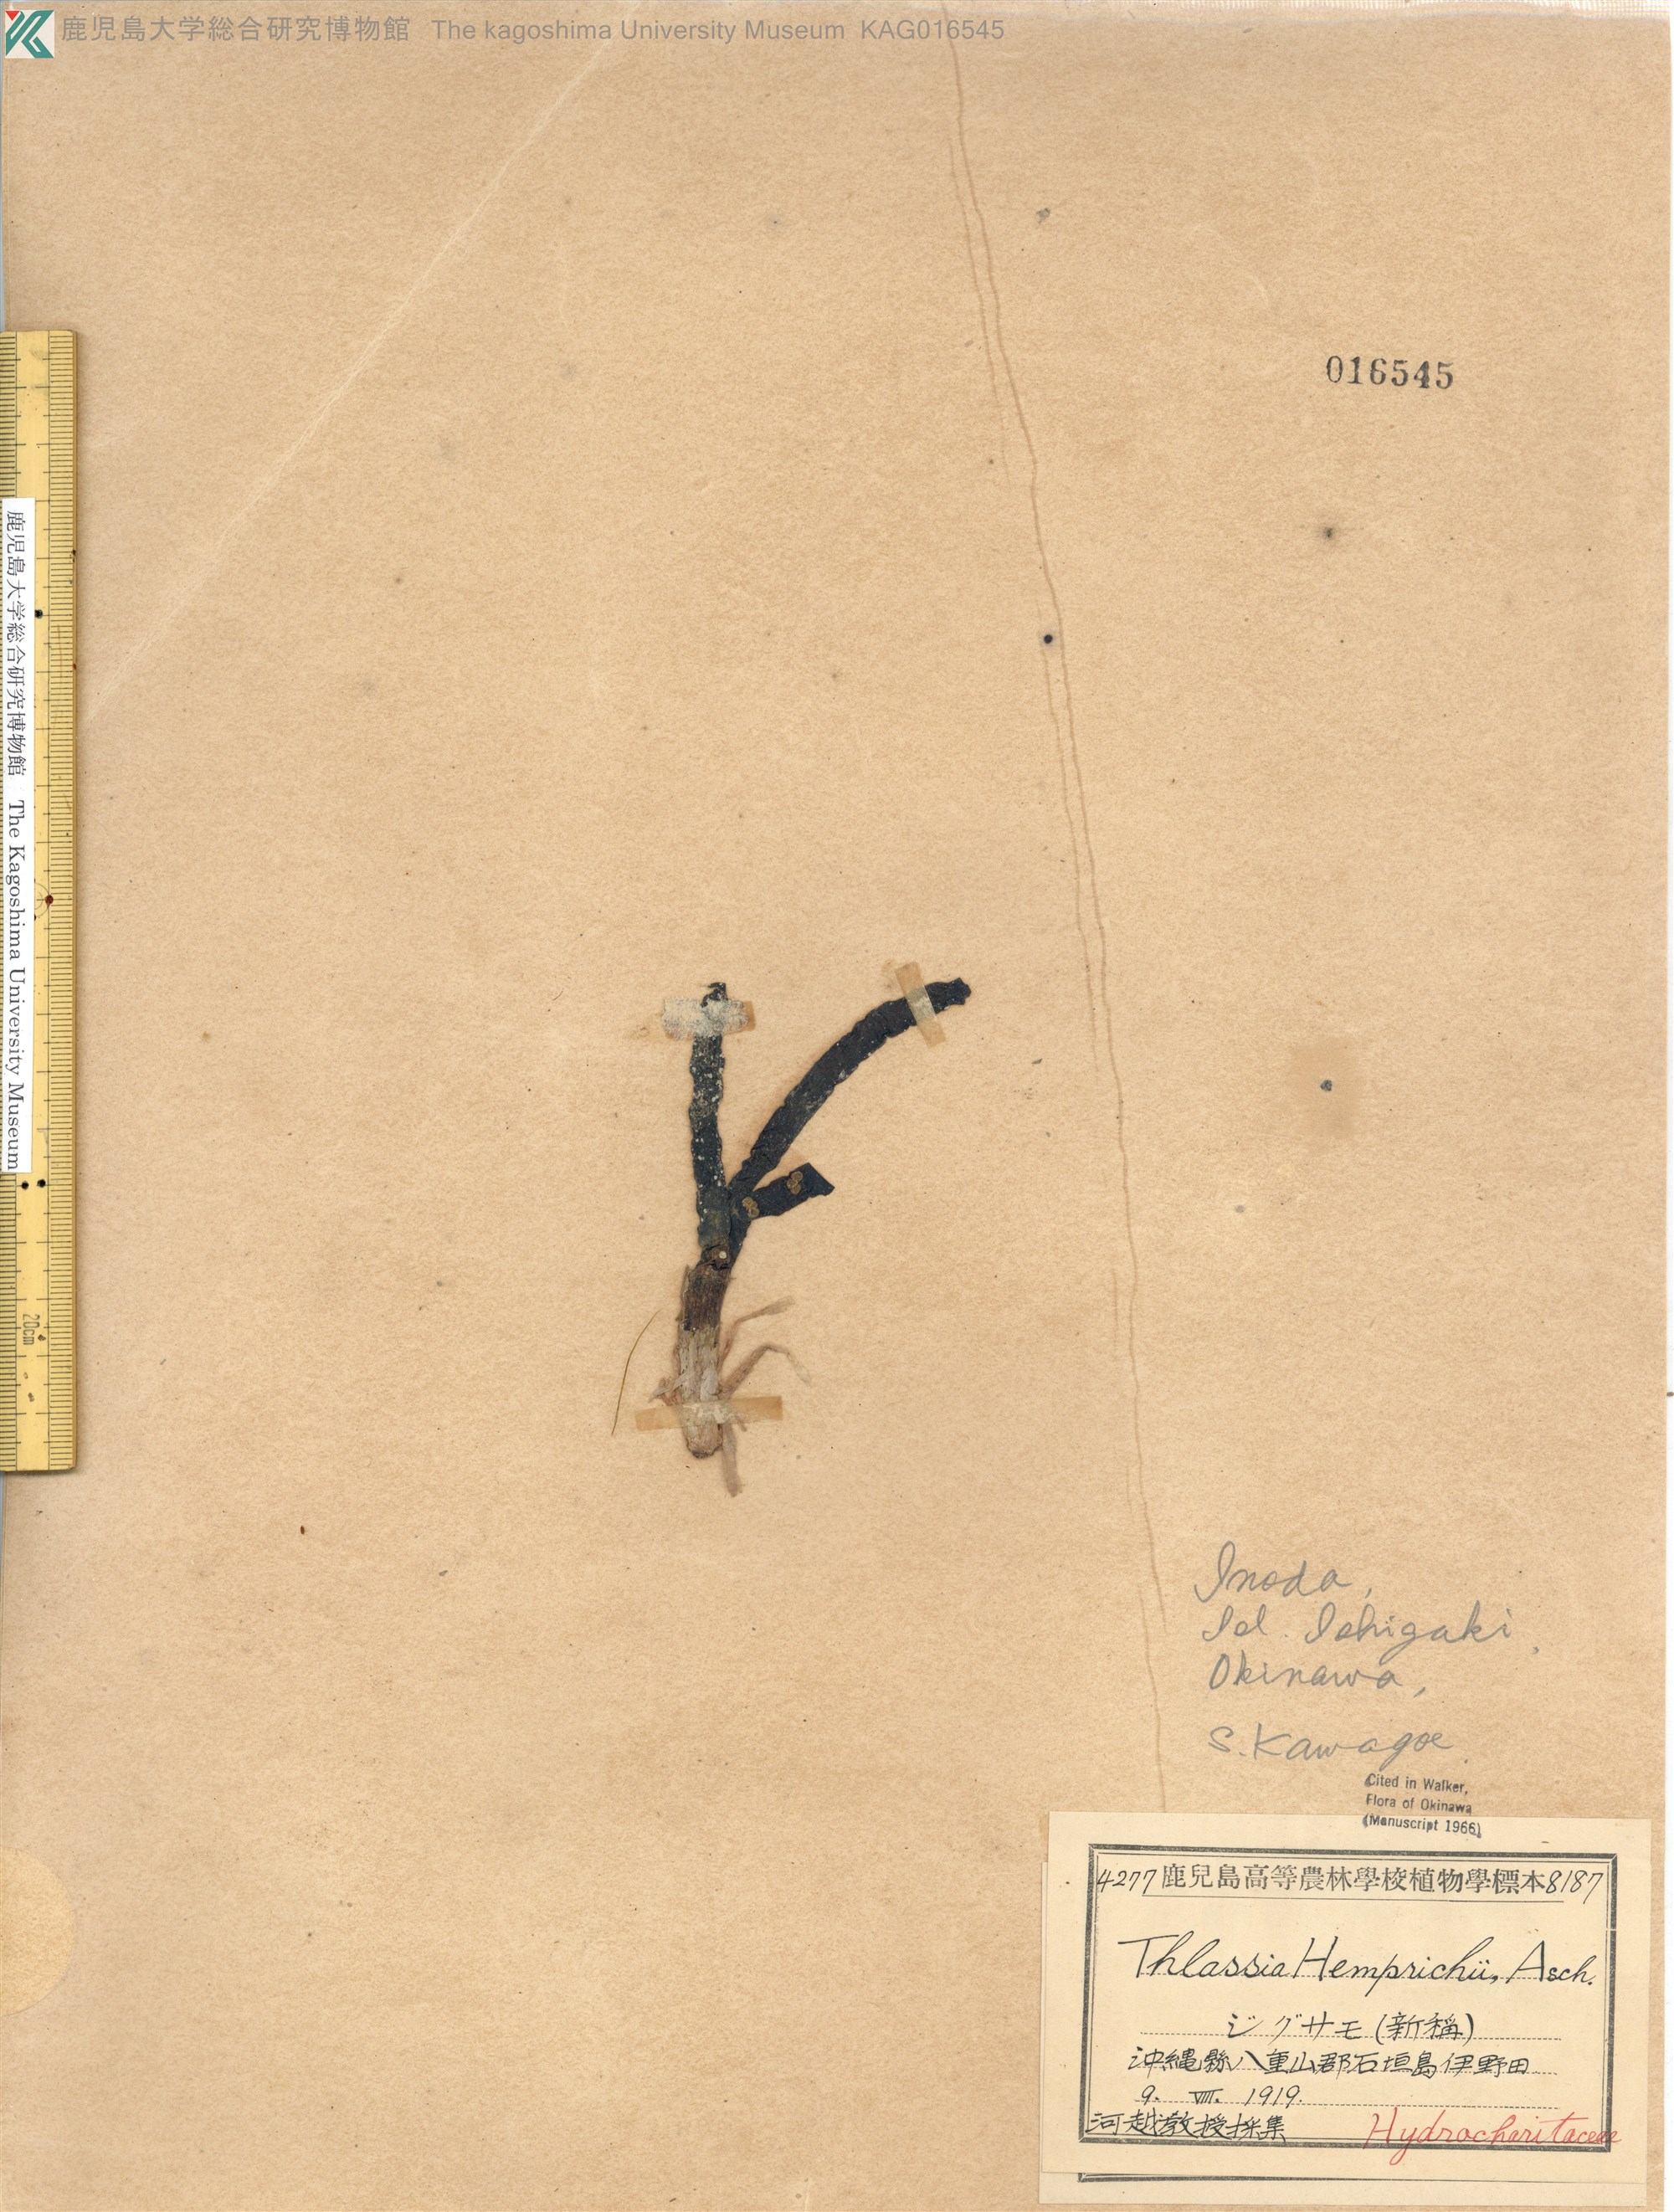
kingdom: Plantae
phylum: Tracheophyta
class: Liliopsida
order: Alismatales
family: Hydrocharitaceae
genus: Thalassia
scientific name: Thalassia hemprichii
